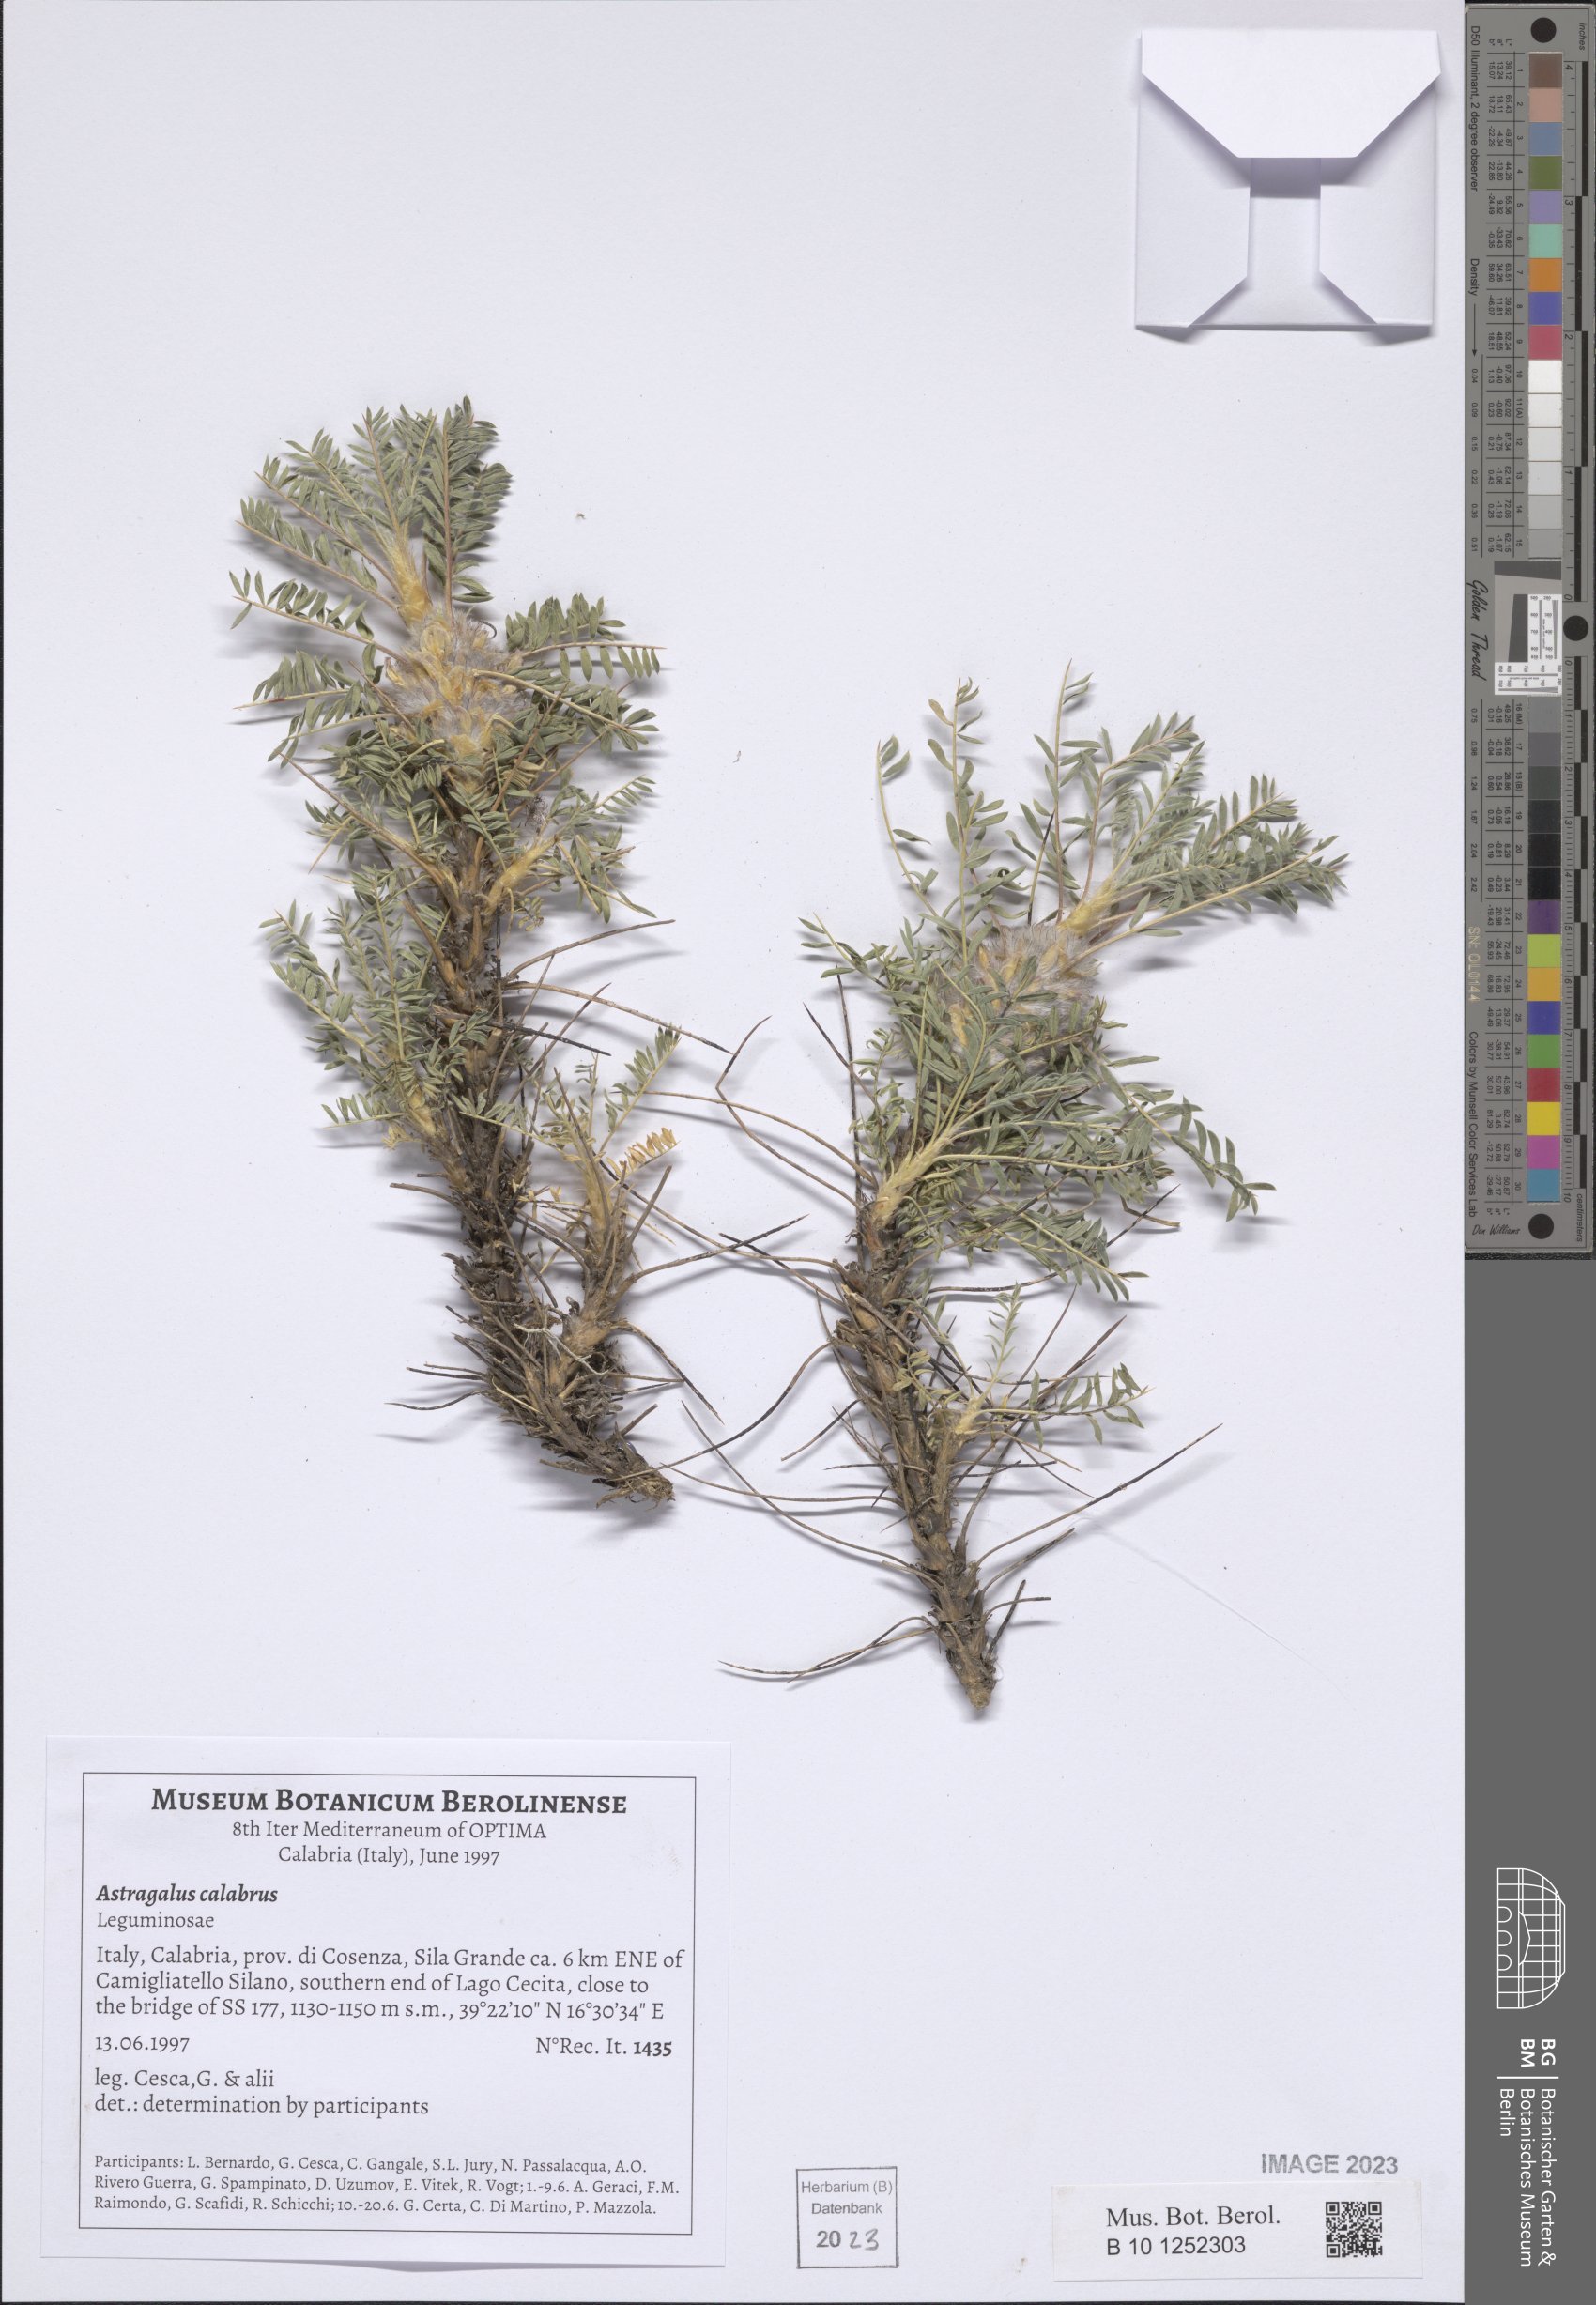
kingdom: Plantae
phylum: Tracheophyta
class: Magnoliopsida
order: Fabales
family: Fabaceae
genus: Astragalus
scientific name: Astragalus parnassi
